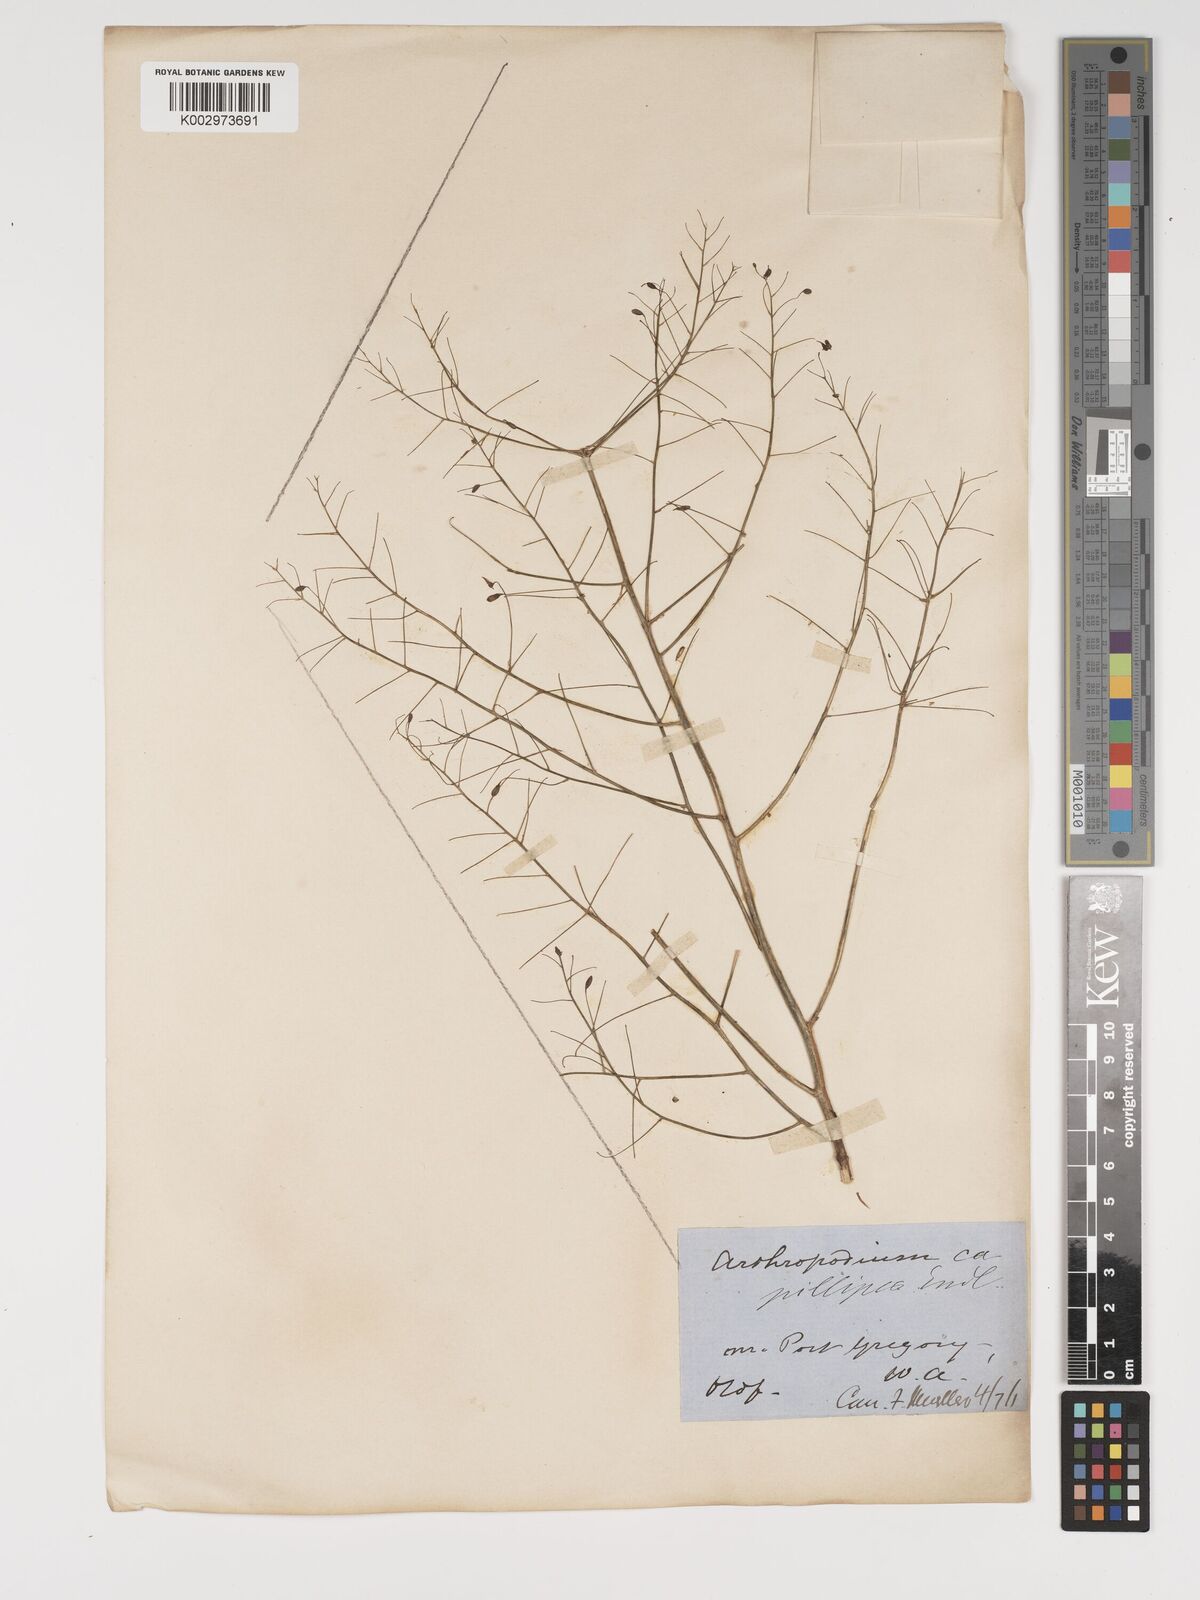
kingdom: Plantae
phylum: Tracheophyta
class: Liliopsida
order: Asparagales
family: Asparagaceae
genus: Dichopogon
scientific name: Dichopogon preissii
